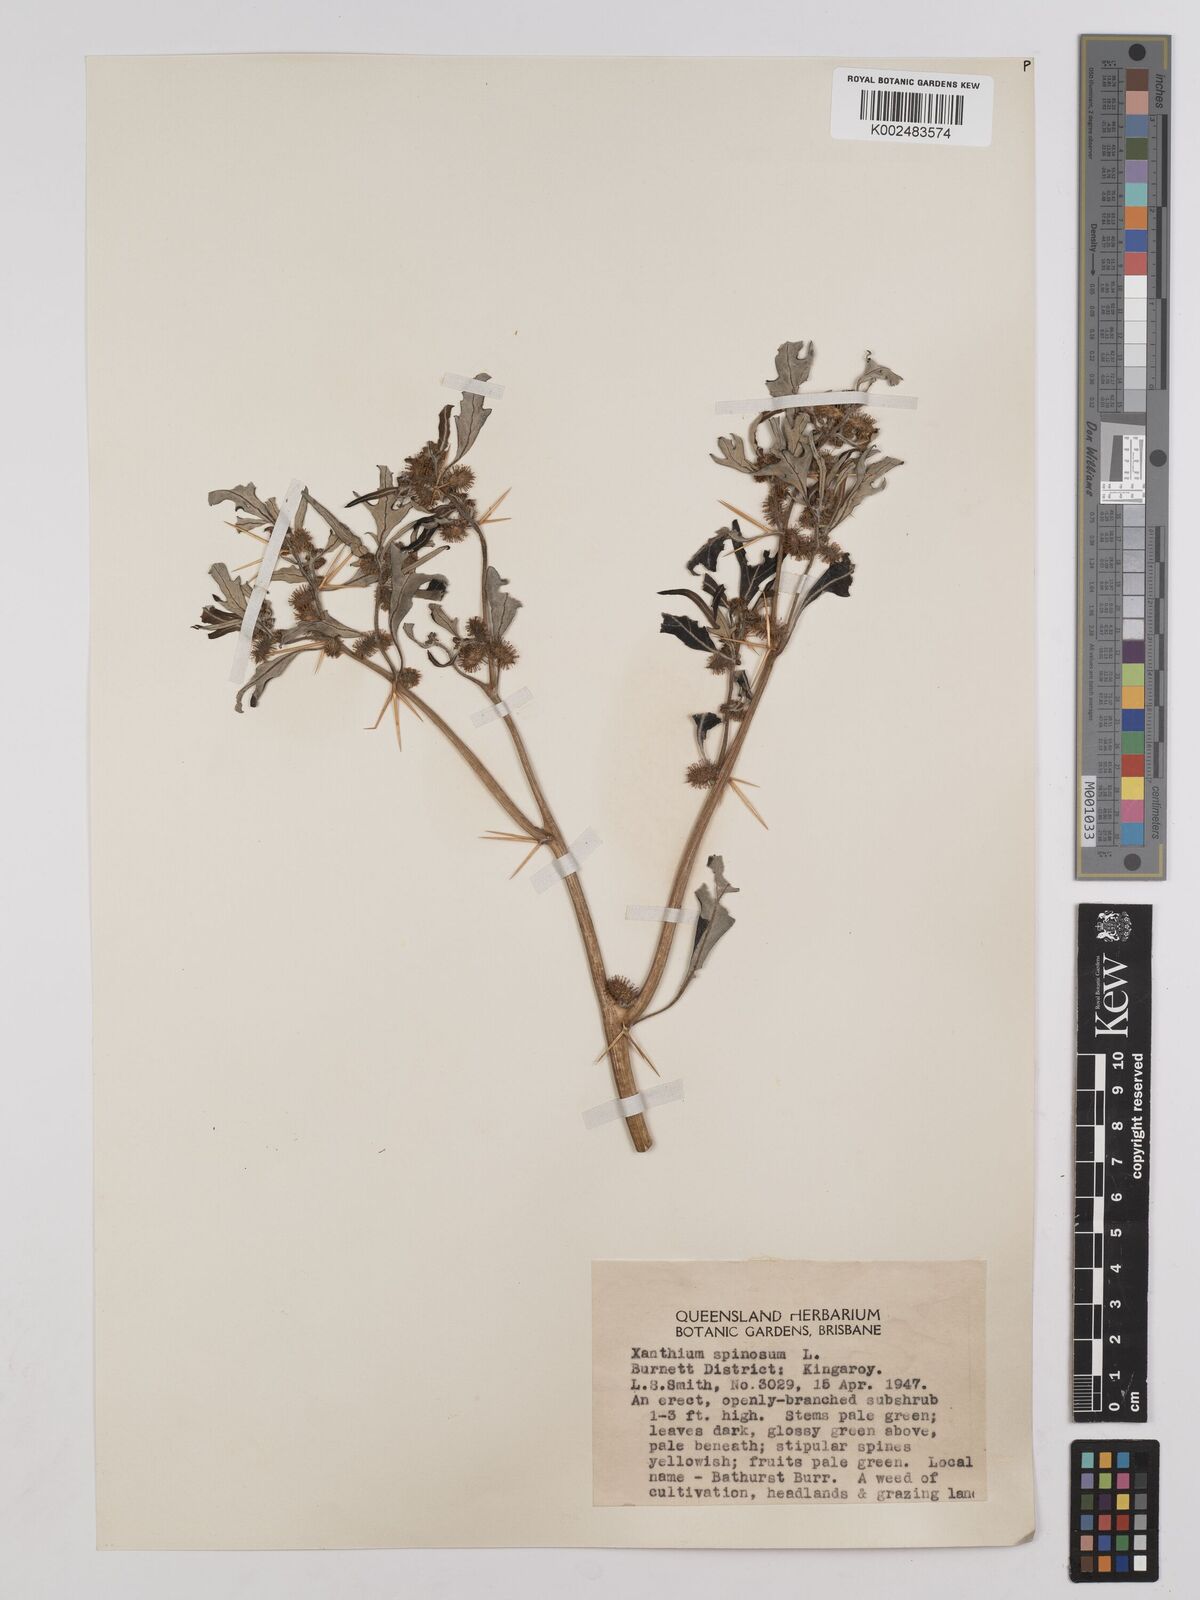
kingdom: Plantae
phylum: Tracheophyta
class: Magnoliopsida
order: Asterales
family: Asteraceae
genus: Xanthium
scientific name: Xanthium spinosum
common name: Spiny cocklebur
